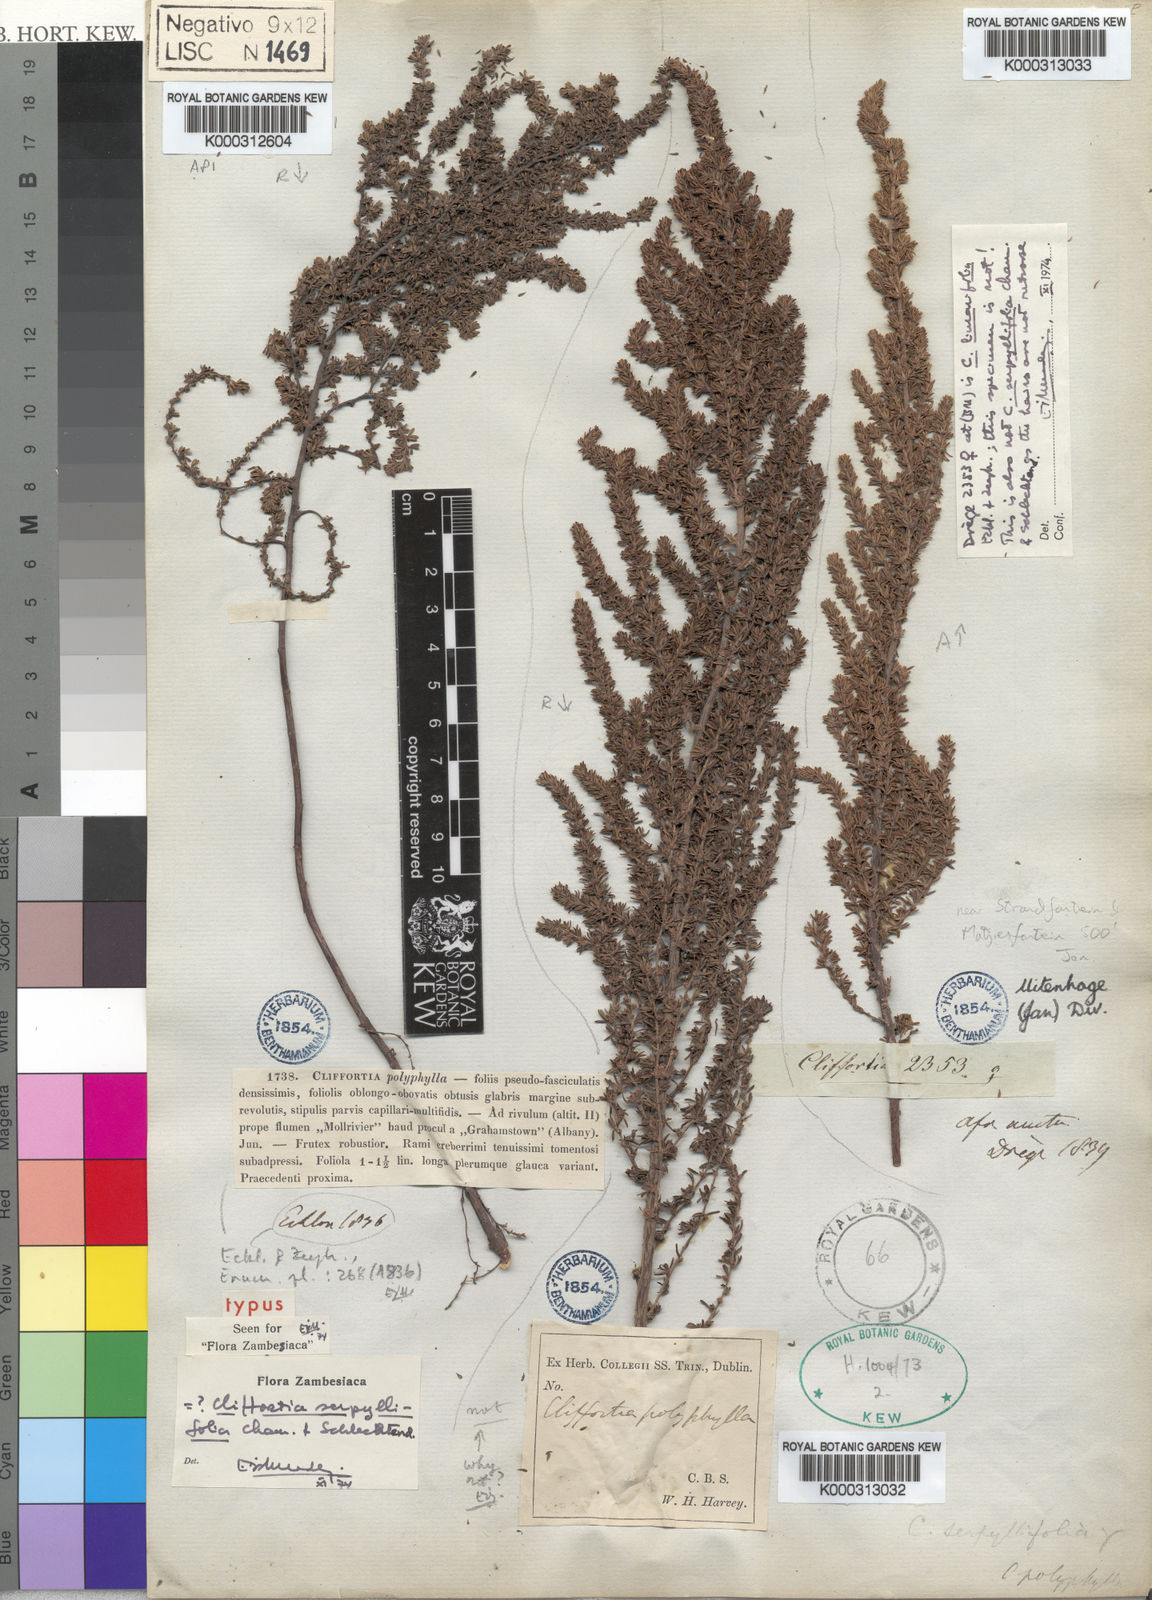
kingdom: Plantae
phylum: Tracheophyta
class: Magnoliopsida
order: Rosales
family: Rosaceae
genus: Cliffortia
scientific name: Cliffortia serpyllifolia
